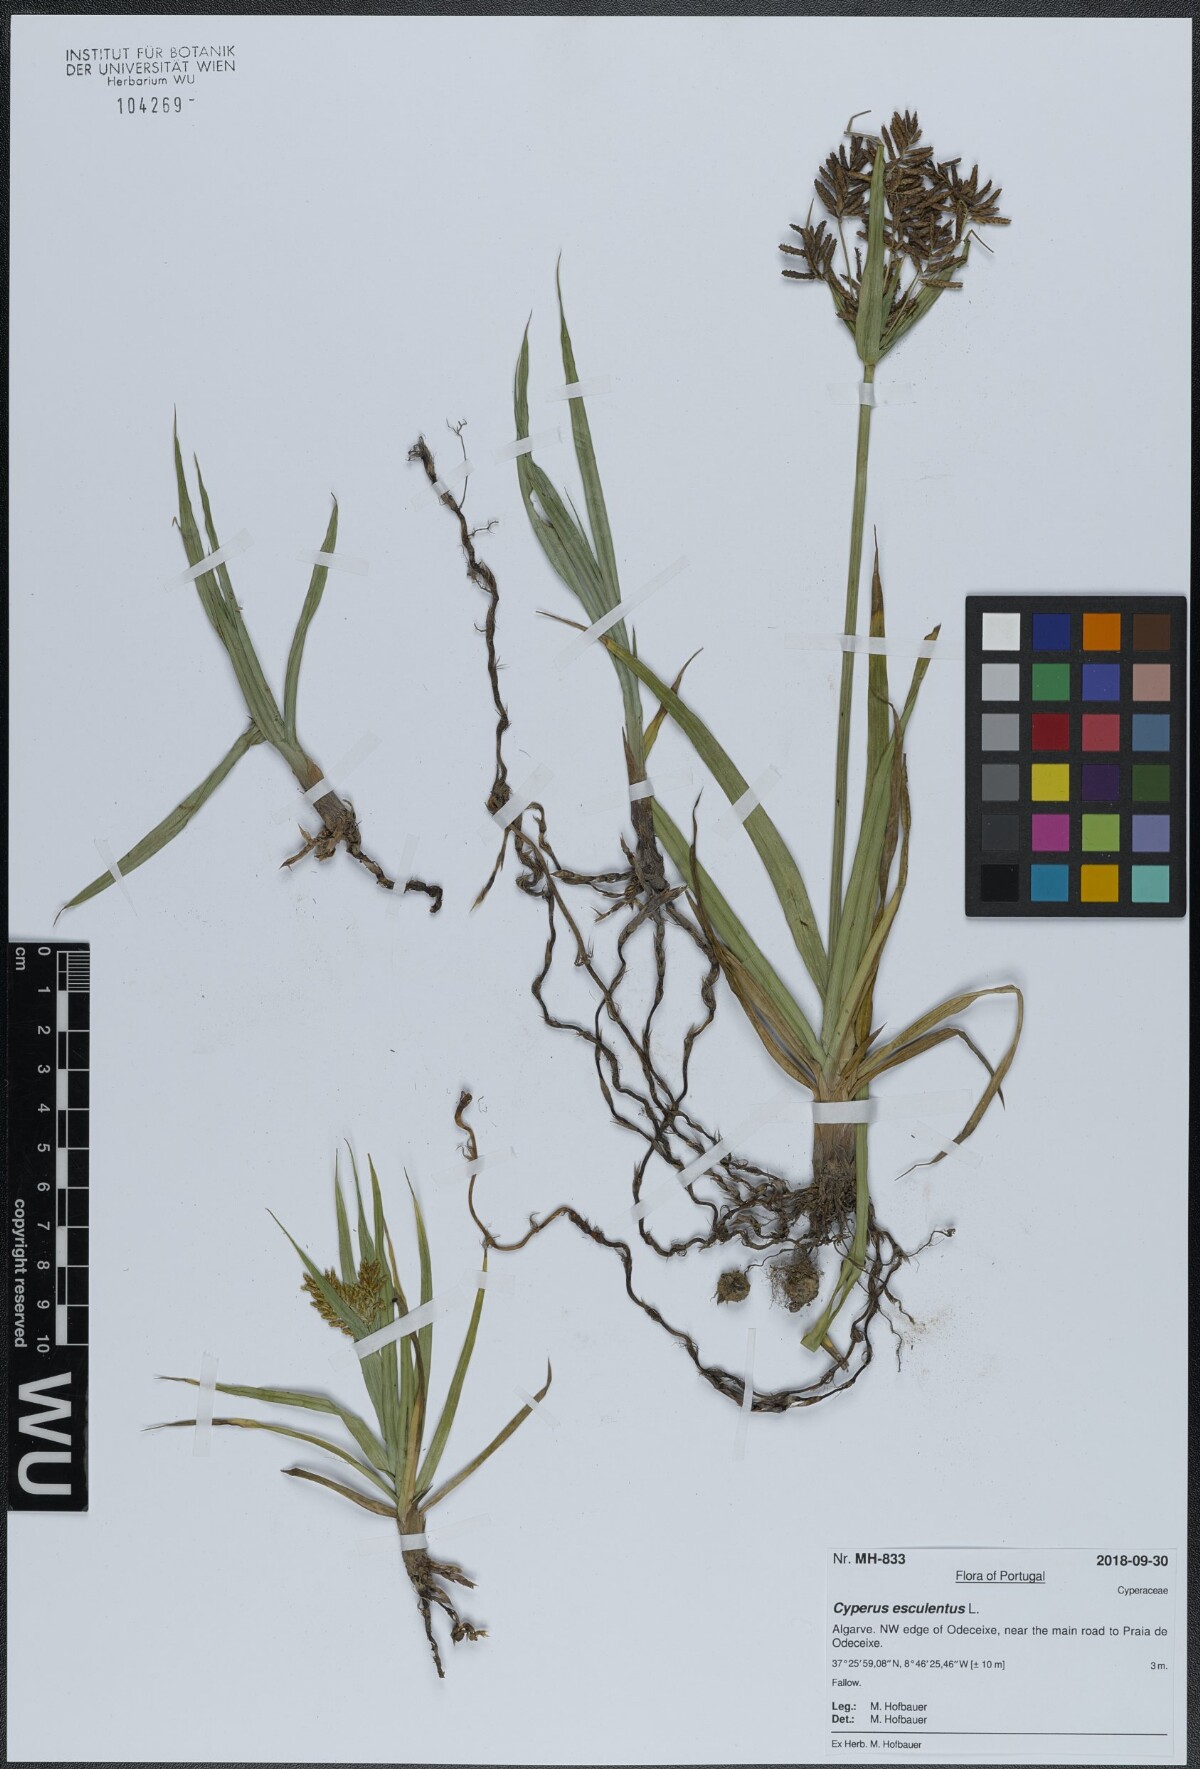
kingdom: Plantae
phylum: Tracheophyta
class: Liliopsida
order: Poales
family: Cyperaceae
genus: Cyperus
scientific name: Cyperus esculentus
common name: Yellow nutsedge
